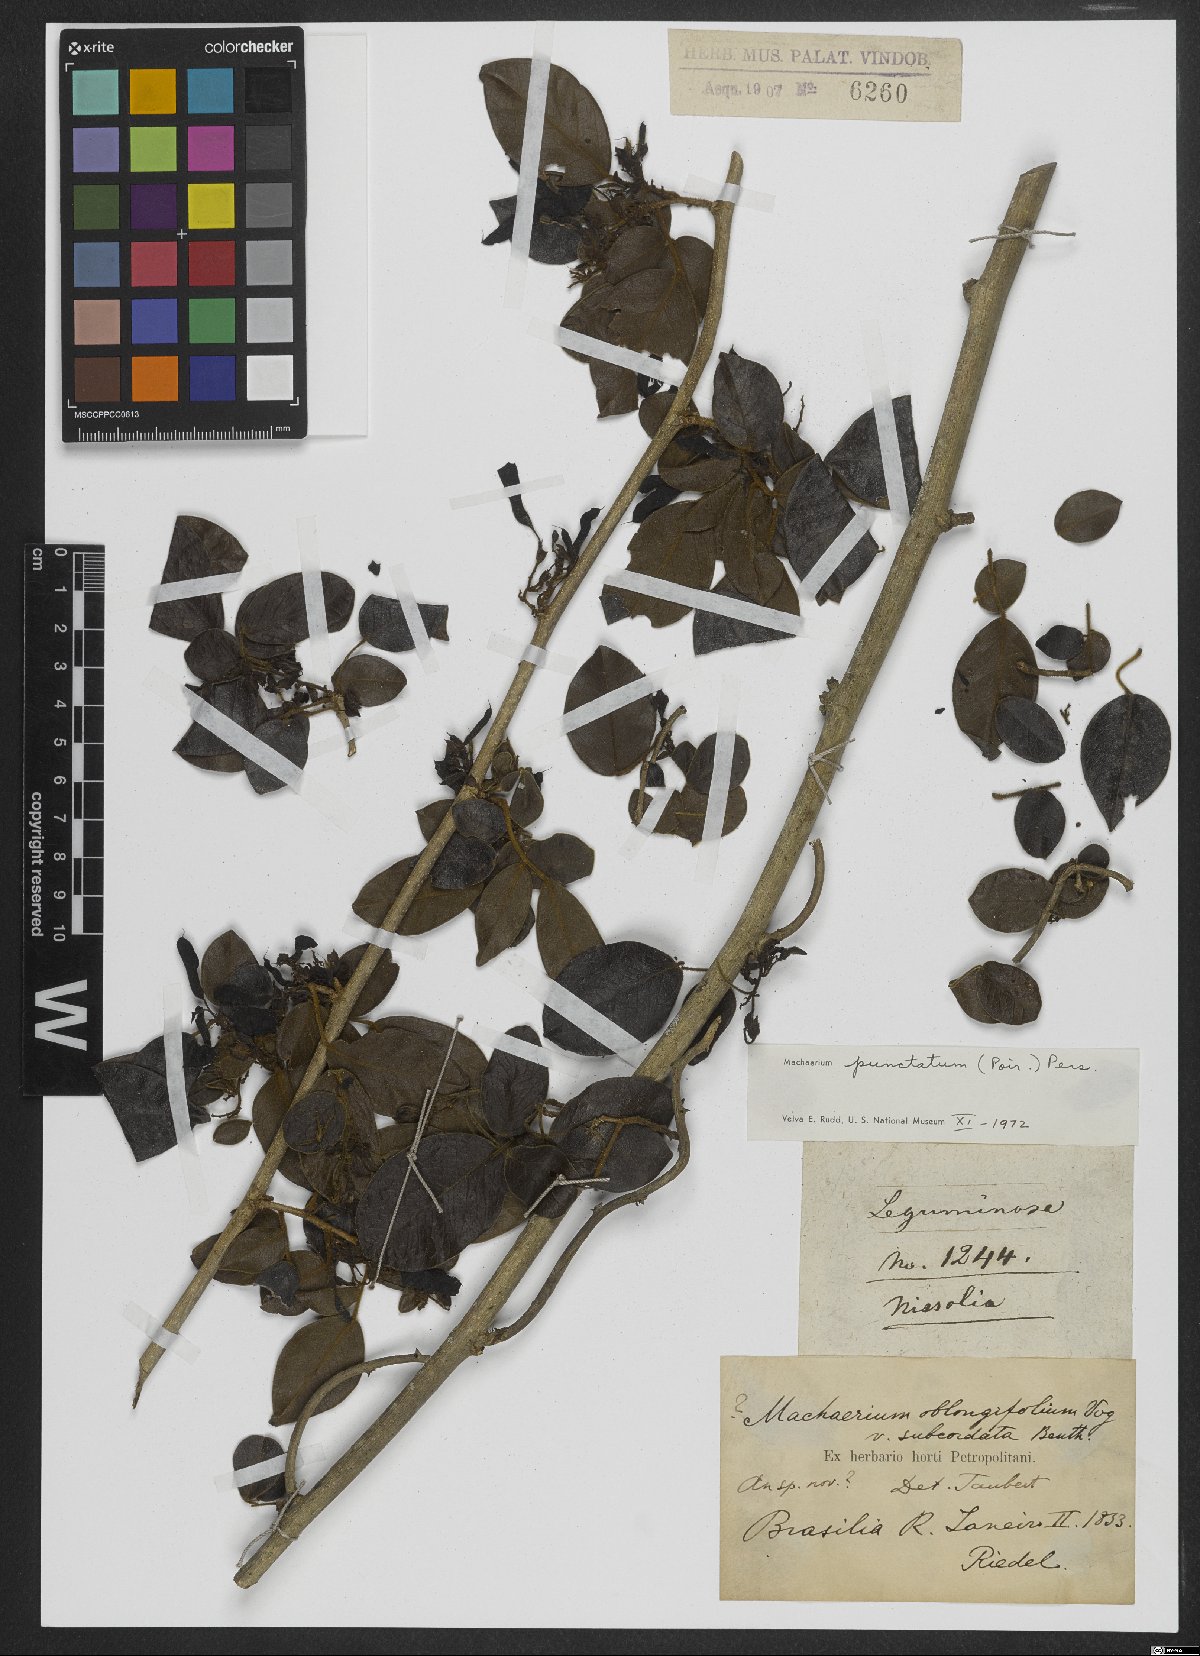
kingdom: Plantae
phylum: Tracheophyta
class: Magnoliopsida
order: Fabales
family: Fabaceae
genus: Machaerium
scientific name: Machaerium punctatum
